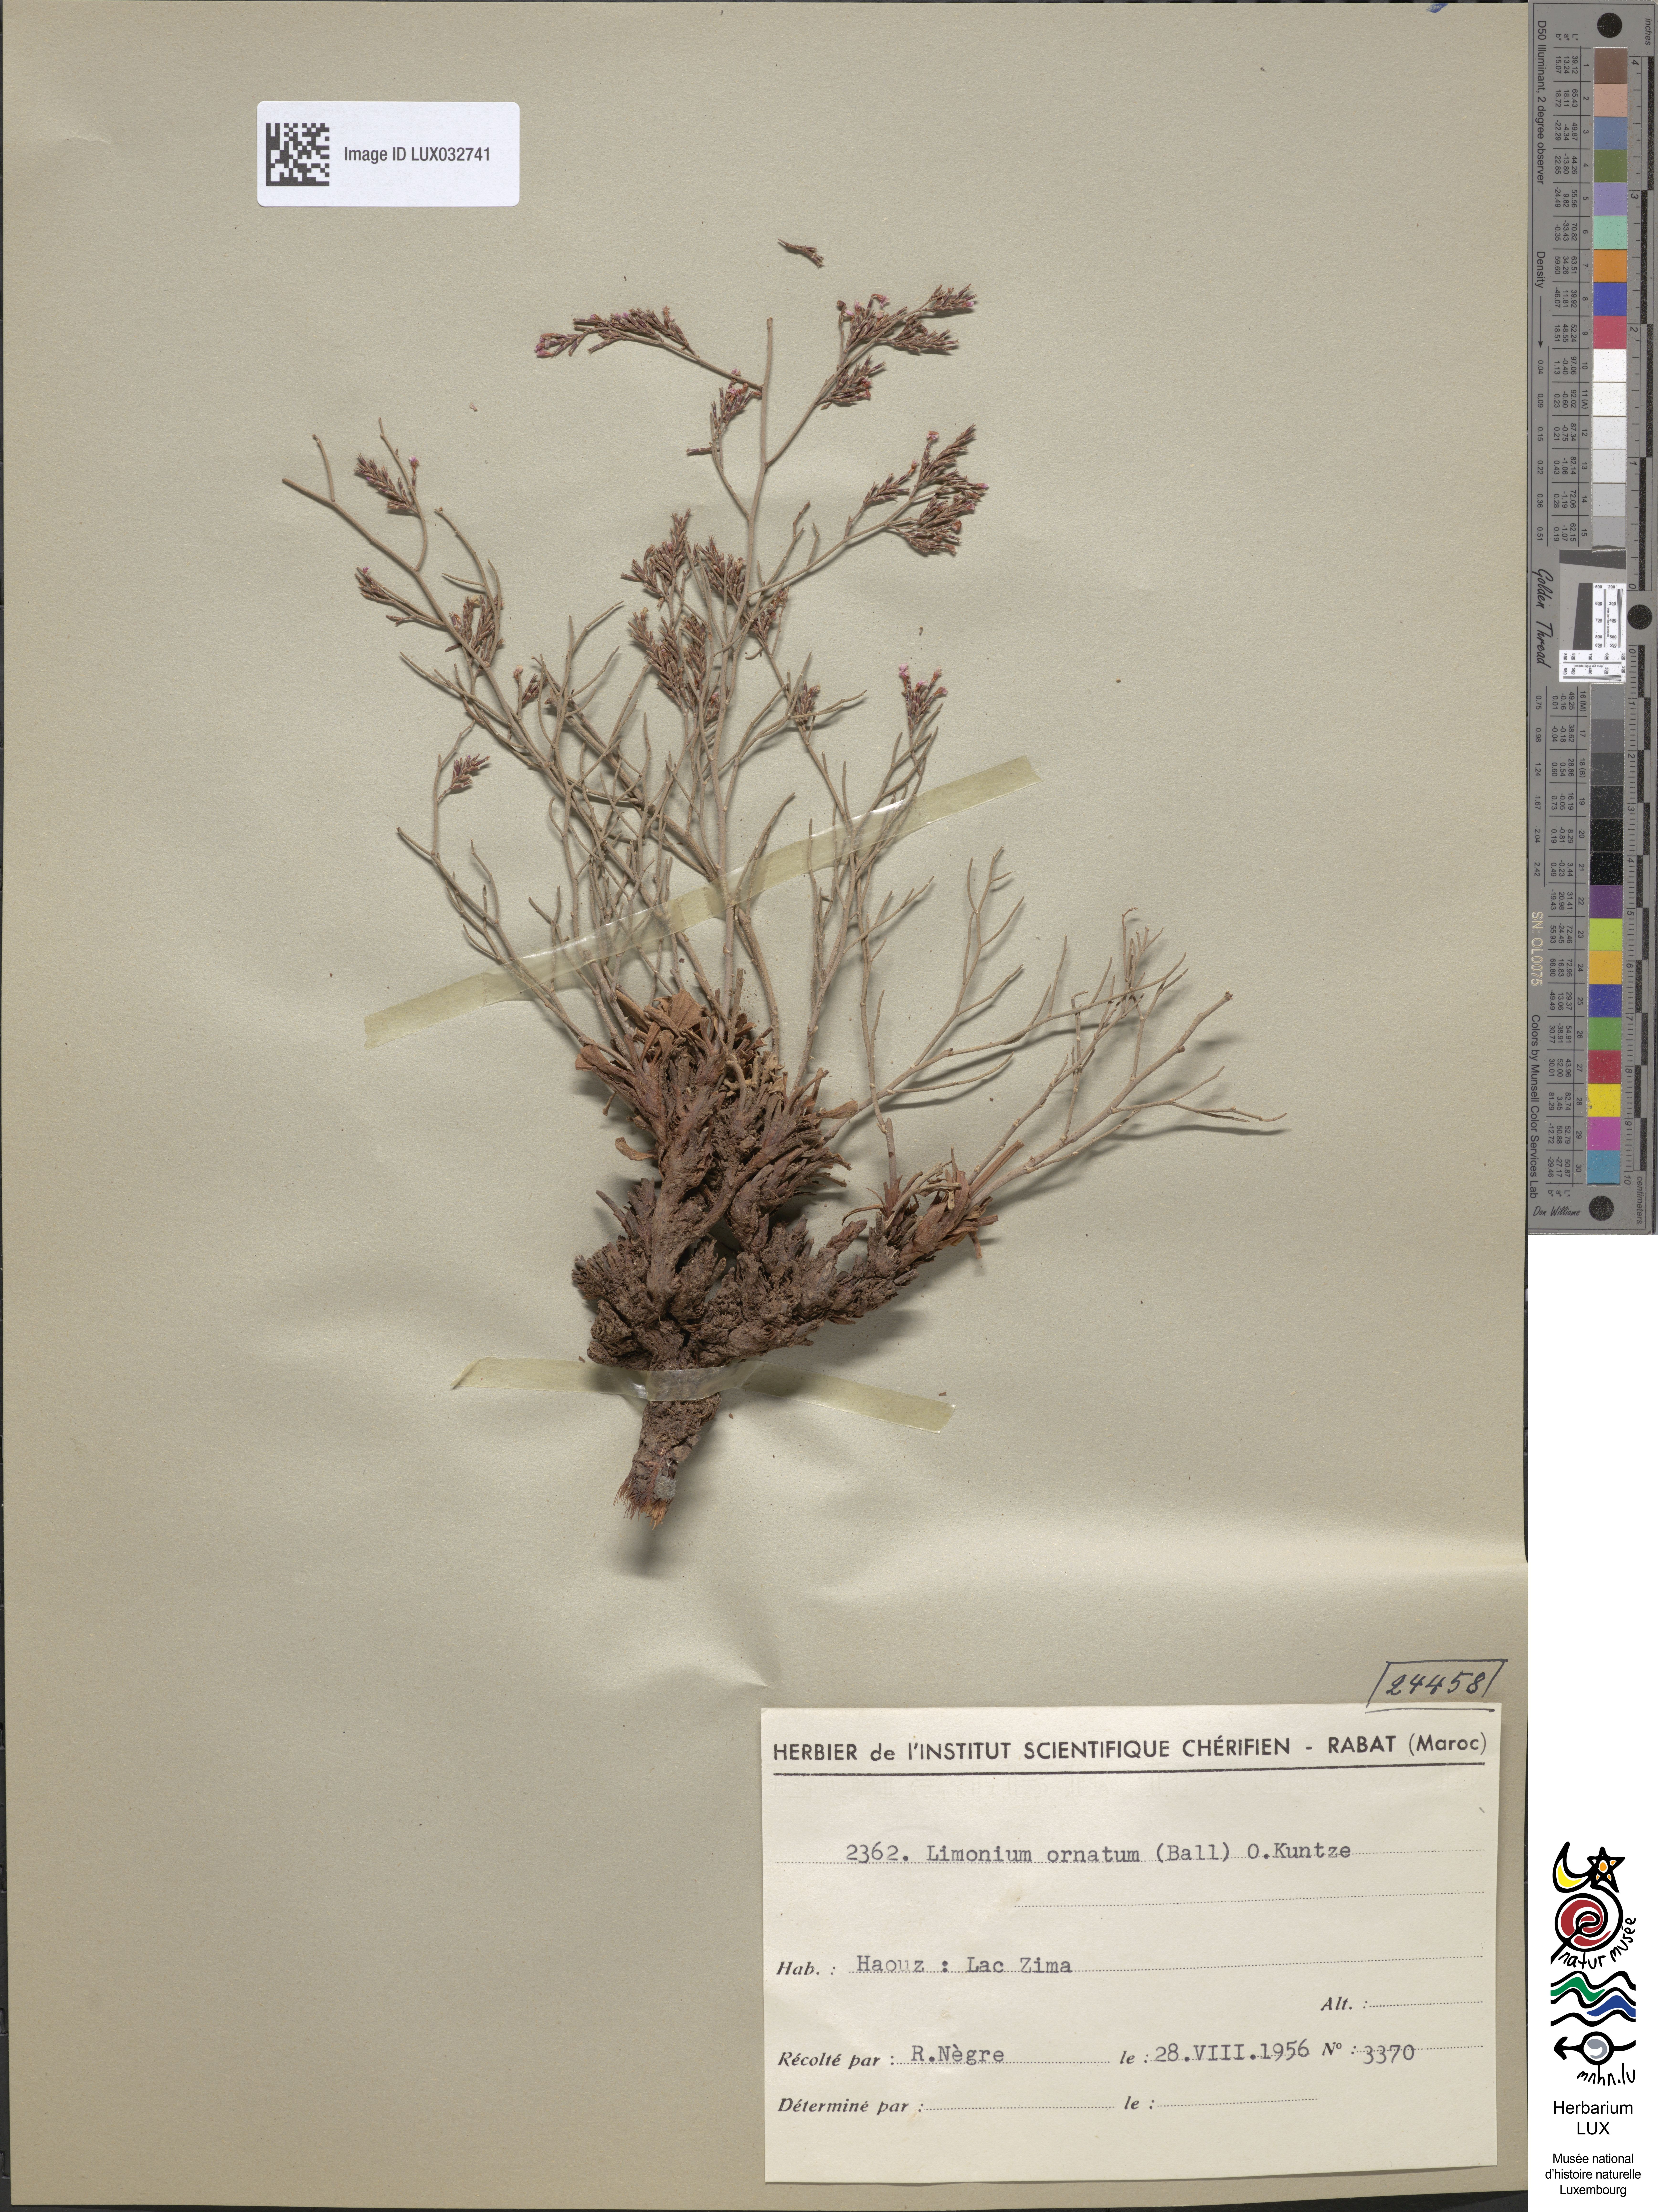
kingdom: Plantae
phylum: Tracheophyta
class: Magnoliopsida
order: Caryophyllales
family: Plumbaginaceae
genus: Limonium
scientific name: Limonium ornatum
